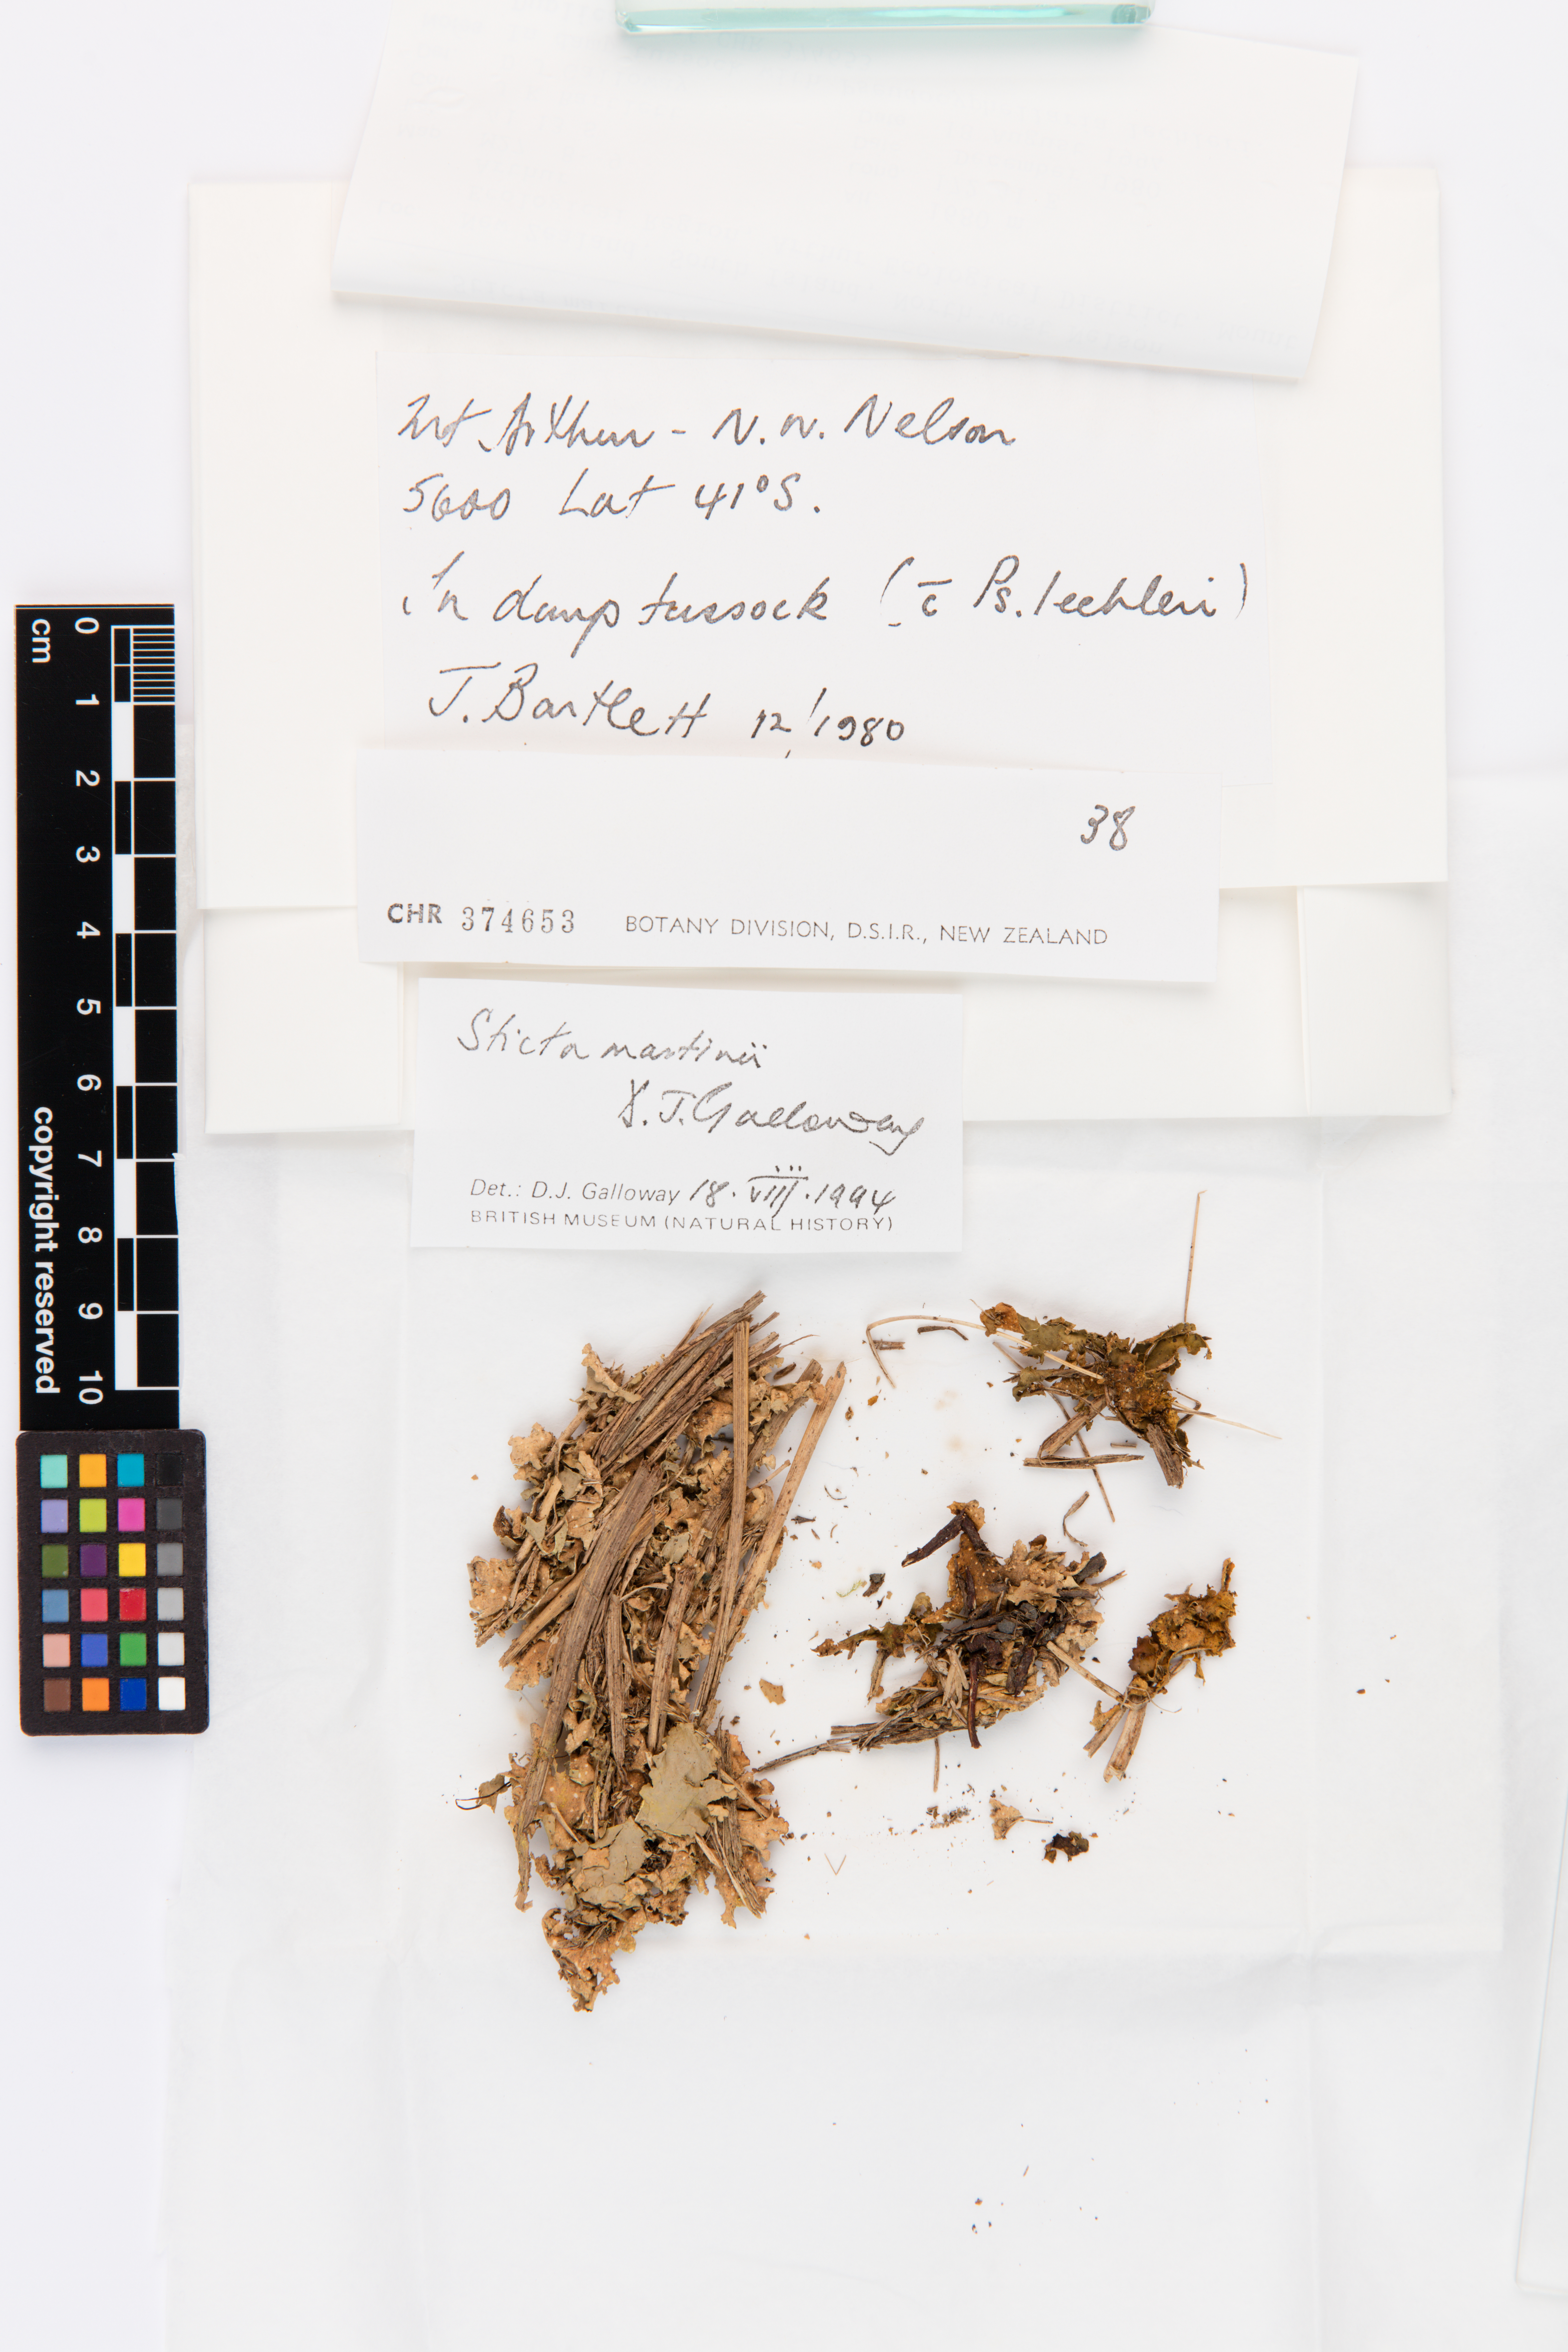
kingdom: Fungi
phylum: Ascomycota
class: Lecanoromycetes
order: Peltigerales
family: Lobariaceae
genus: Sticta
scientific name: Sticta martinii
